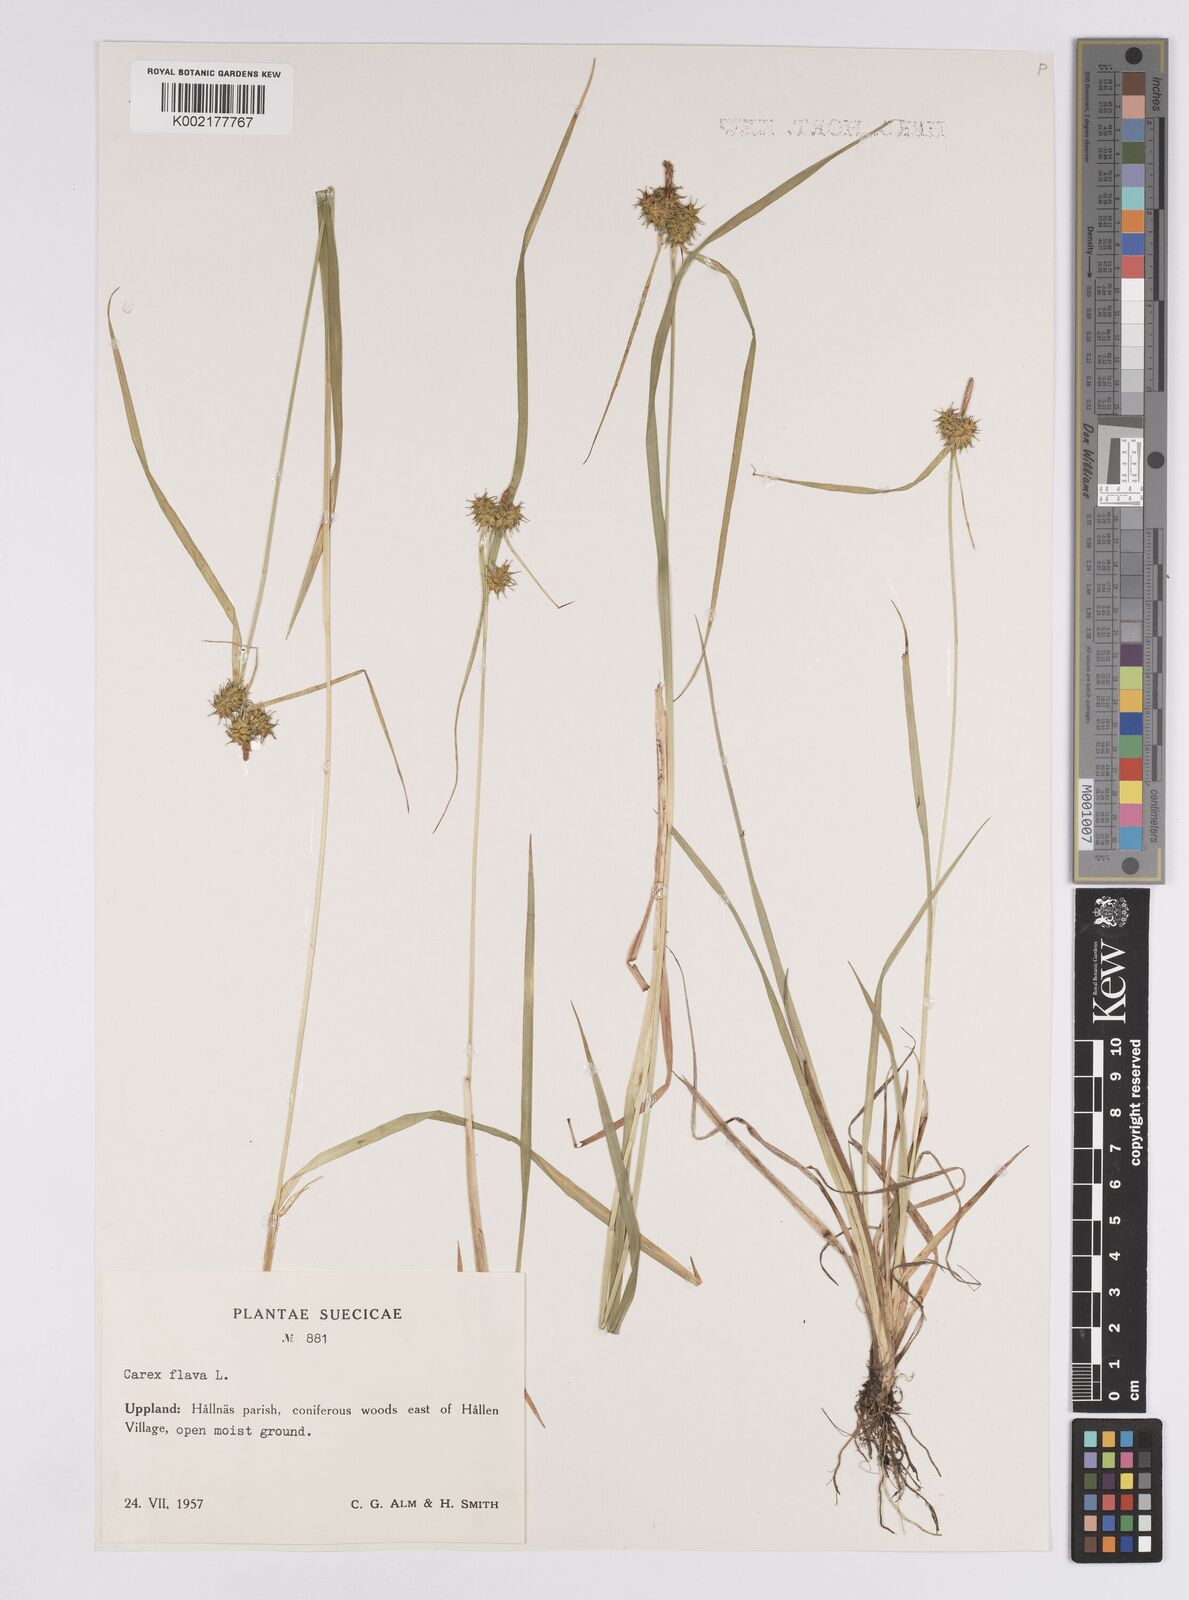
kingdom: Plantae
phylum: Tracheophyta
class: Liliopsida
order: Poales
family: Cyperaceae
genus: Carex
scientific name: Carex flava
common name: Large yellow-sedge
